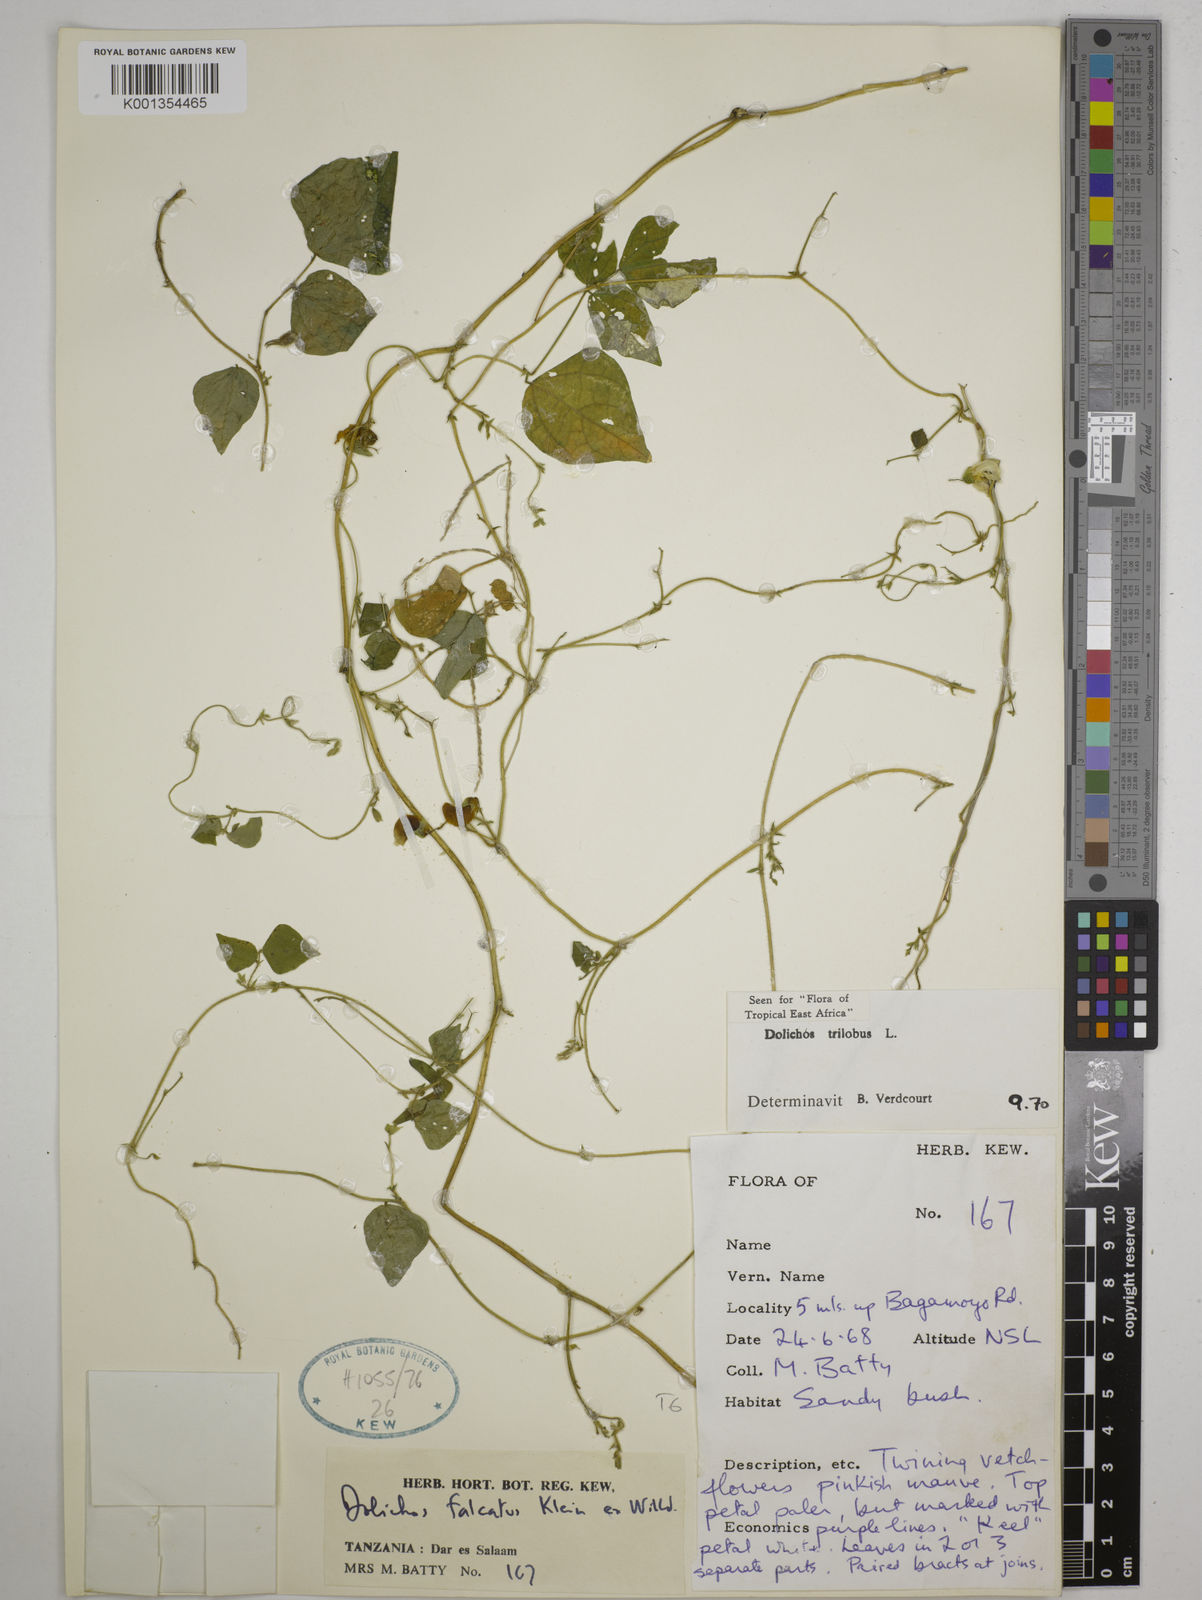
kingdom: Plantae
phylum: Tracheophyta
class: Magnoliopsida
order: Fabales
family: Fabaceae
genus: Dolichos
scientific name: Dolichos
